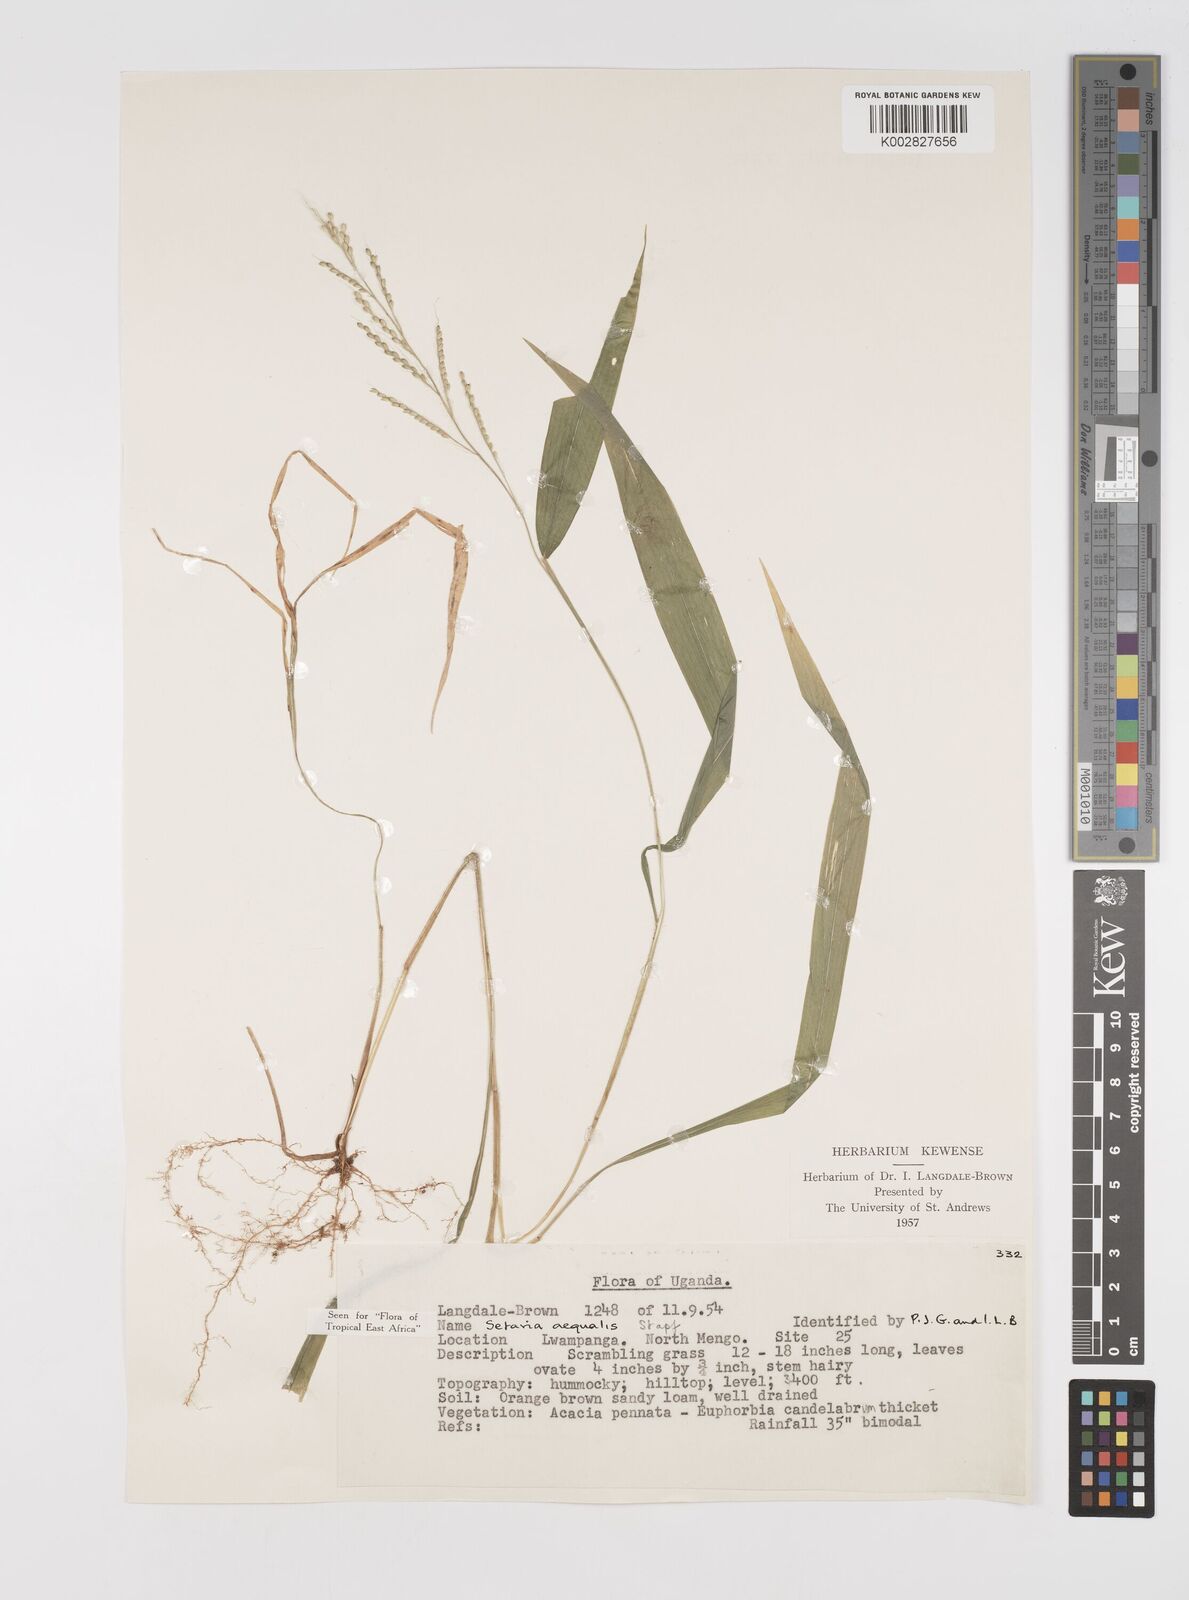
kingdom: Plantae
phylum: Tracheophyta
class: Liliopsida
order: Poales
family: Poaceae
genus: Setaria
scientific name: Setaria homonyma
